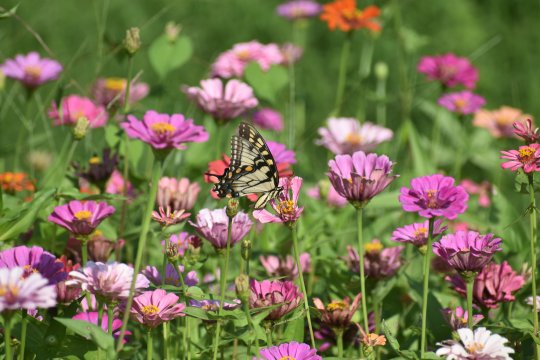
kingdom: Animalia
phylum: Arthropoda
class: Insecta
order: Lepidoptera
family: Papilionidae
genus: Pterourus
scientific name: Pterourus glaucus
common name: Eastern Tiger Swallowtail
